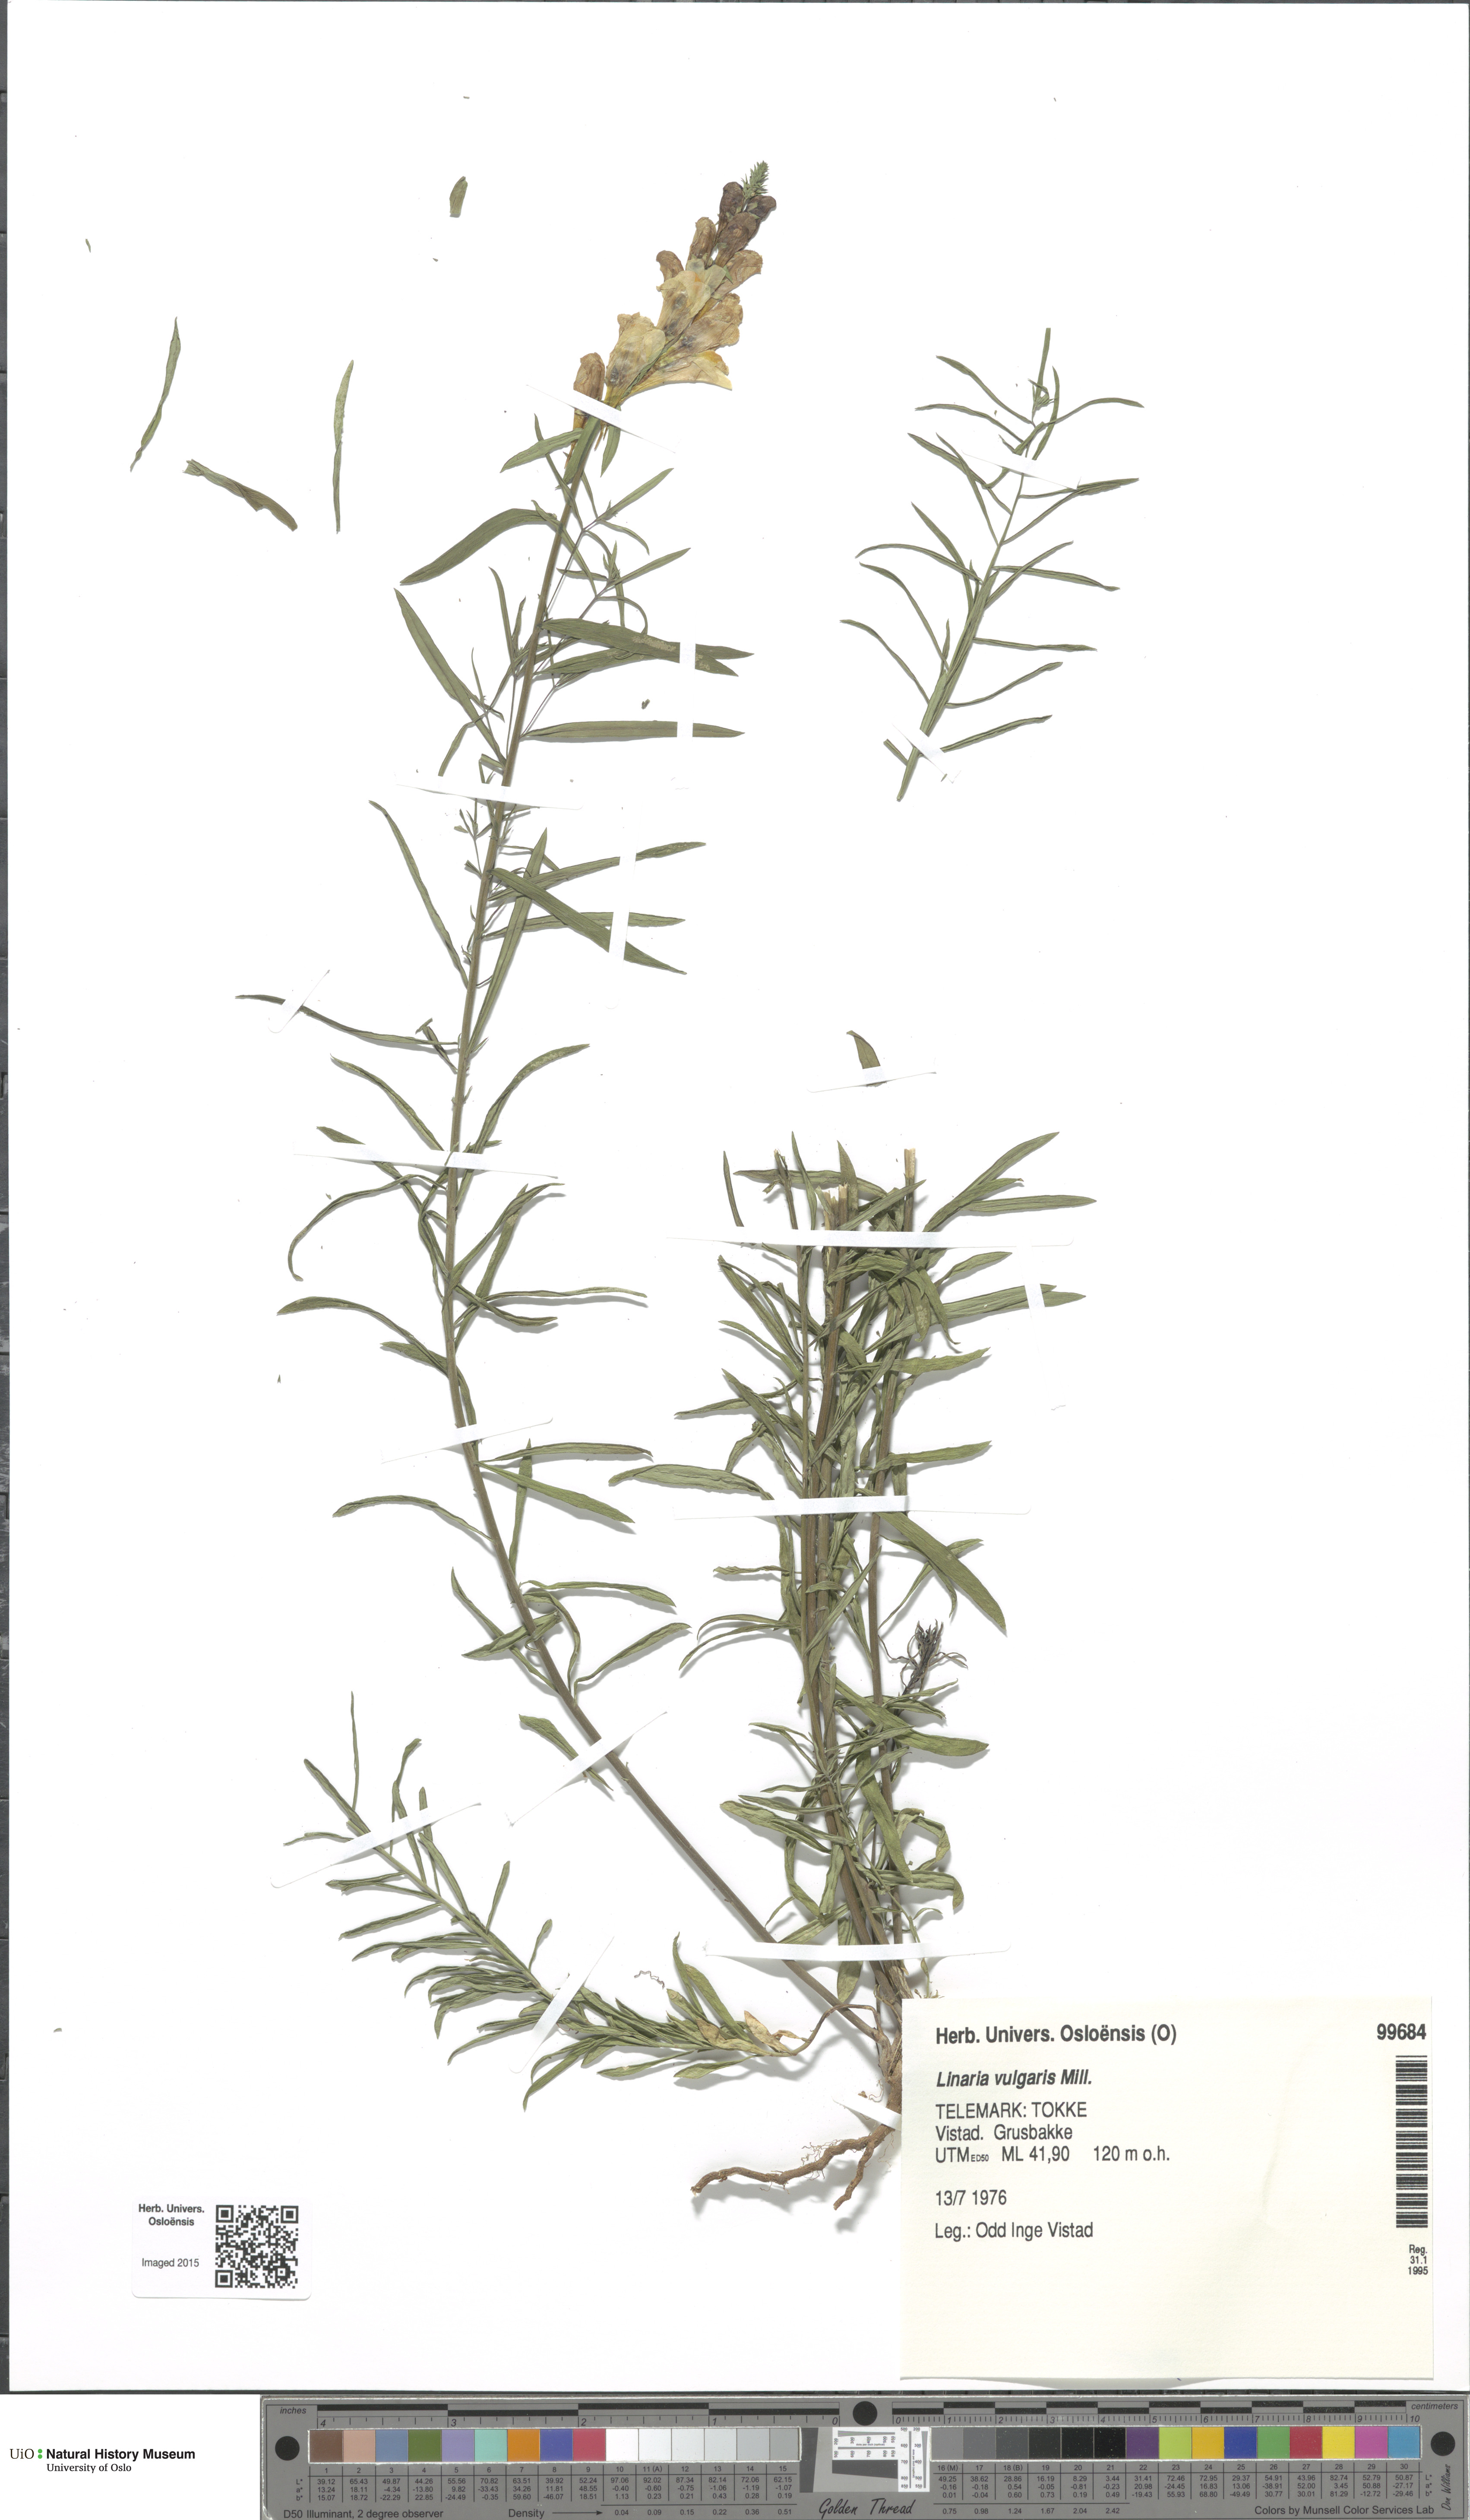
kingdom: Plantae
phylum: Tracheophyta
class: Magnoliopsida
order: Lamiales
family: Plantaginaceae
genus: Linaria
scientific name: Linaria vulgaris
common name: Butter and eggs
